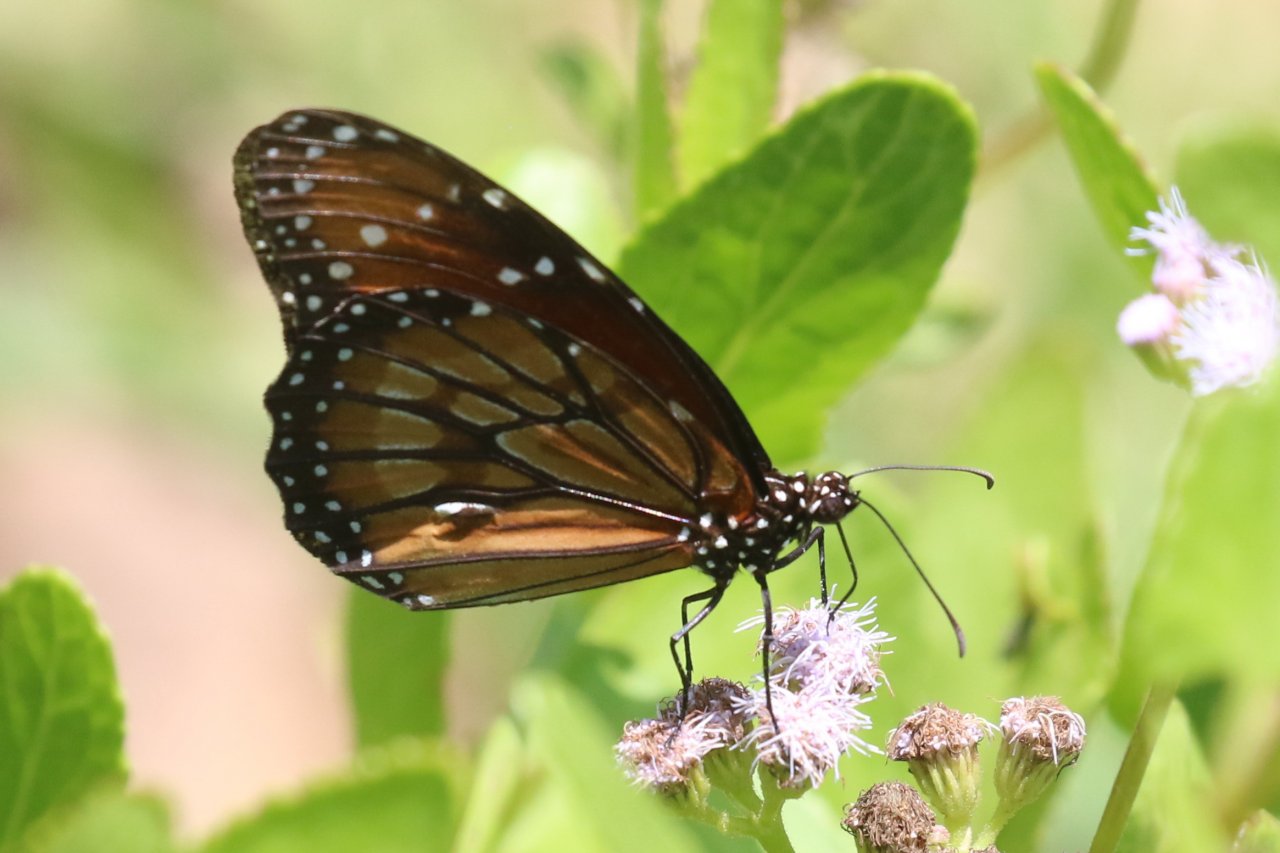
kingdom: Animalia
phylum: Arthropoda
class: Insecta
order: Lepidoptera
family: Nymphalidae
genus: Danaus
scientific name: Danaus eresimus
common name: Soldier
